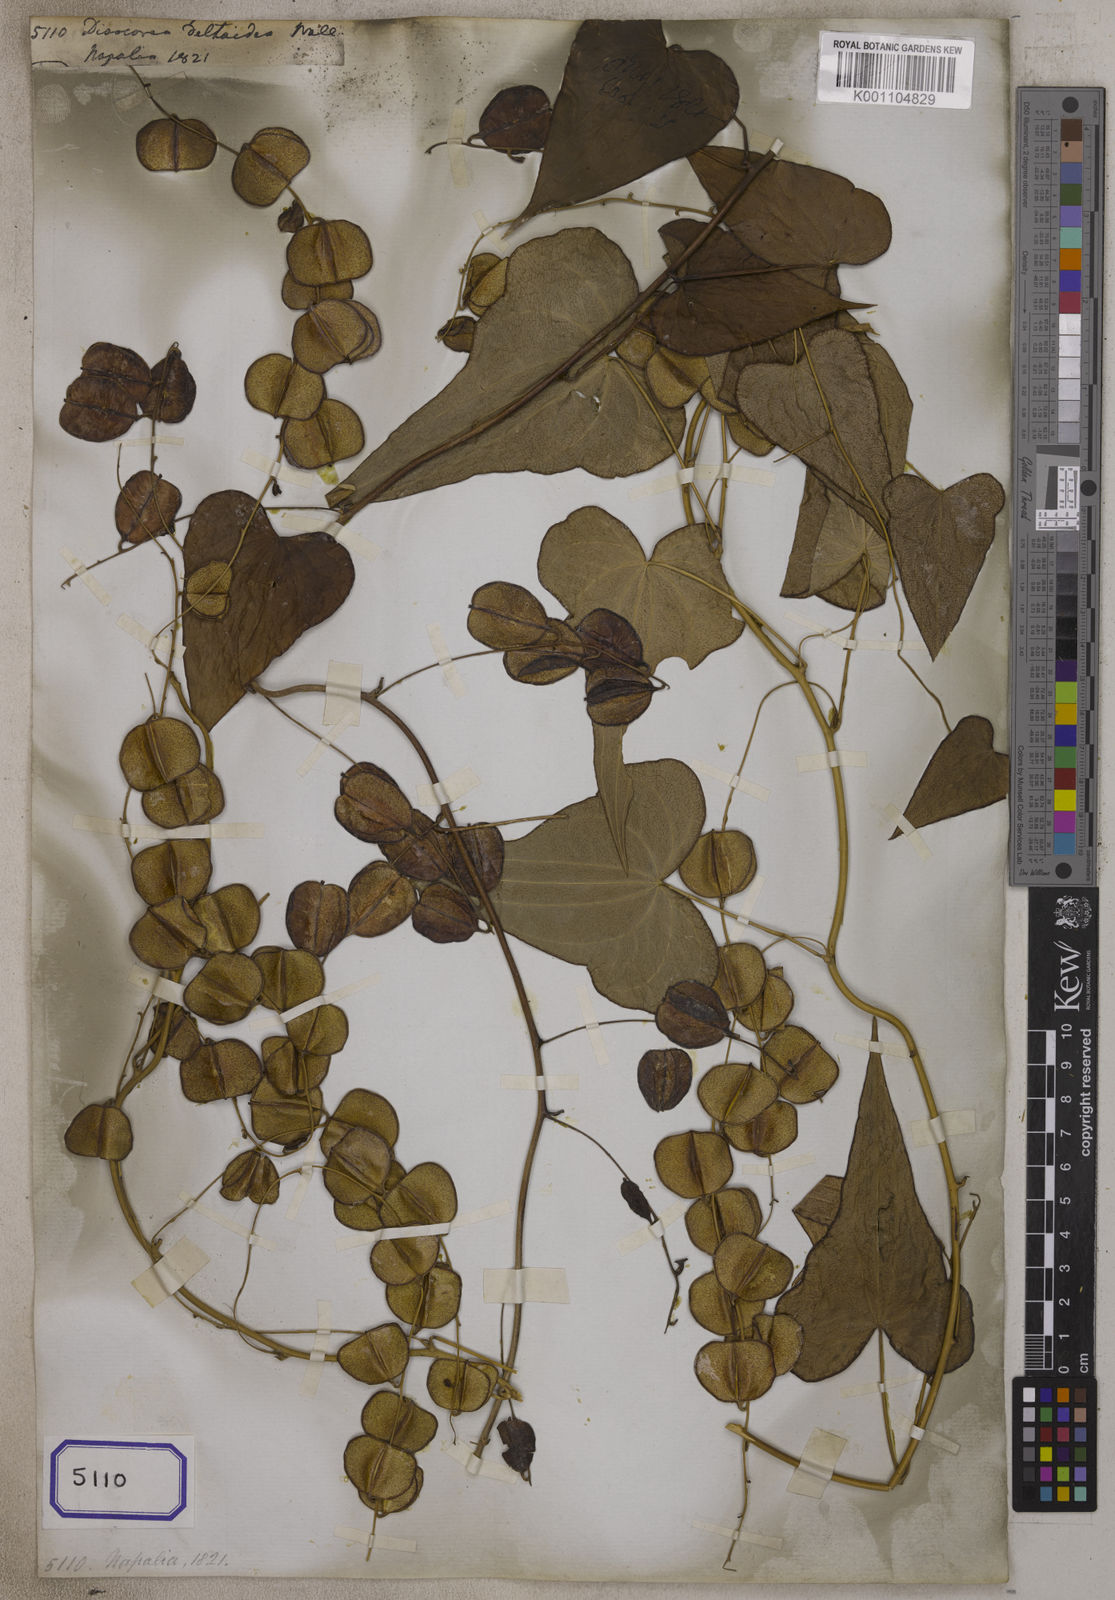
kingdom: Plantae
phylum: Tracheophyta
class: Liliopsida
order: Dioscoreales
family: Dioscoreaceae
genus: Dioscorea
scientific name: Dioscorea
